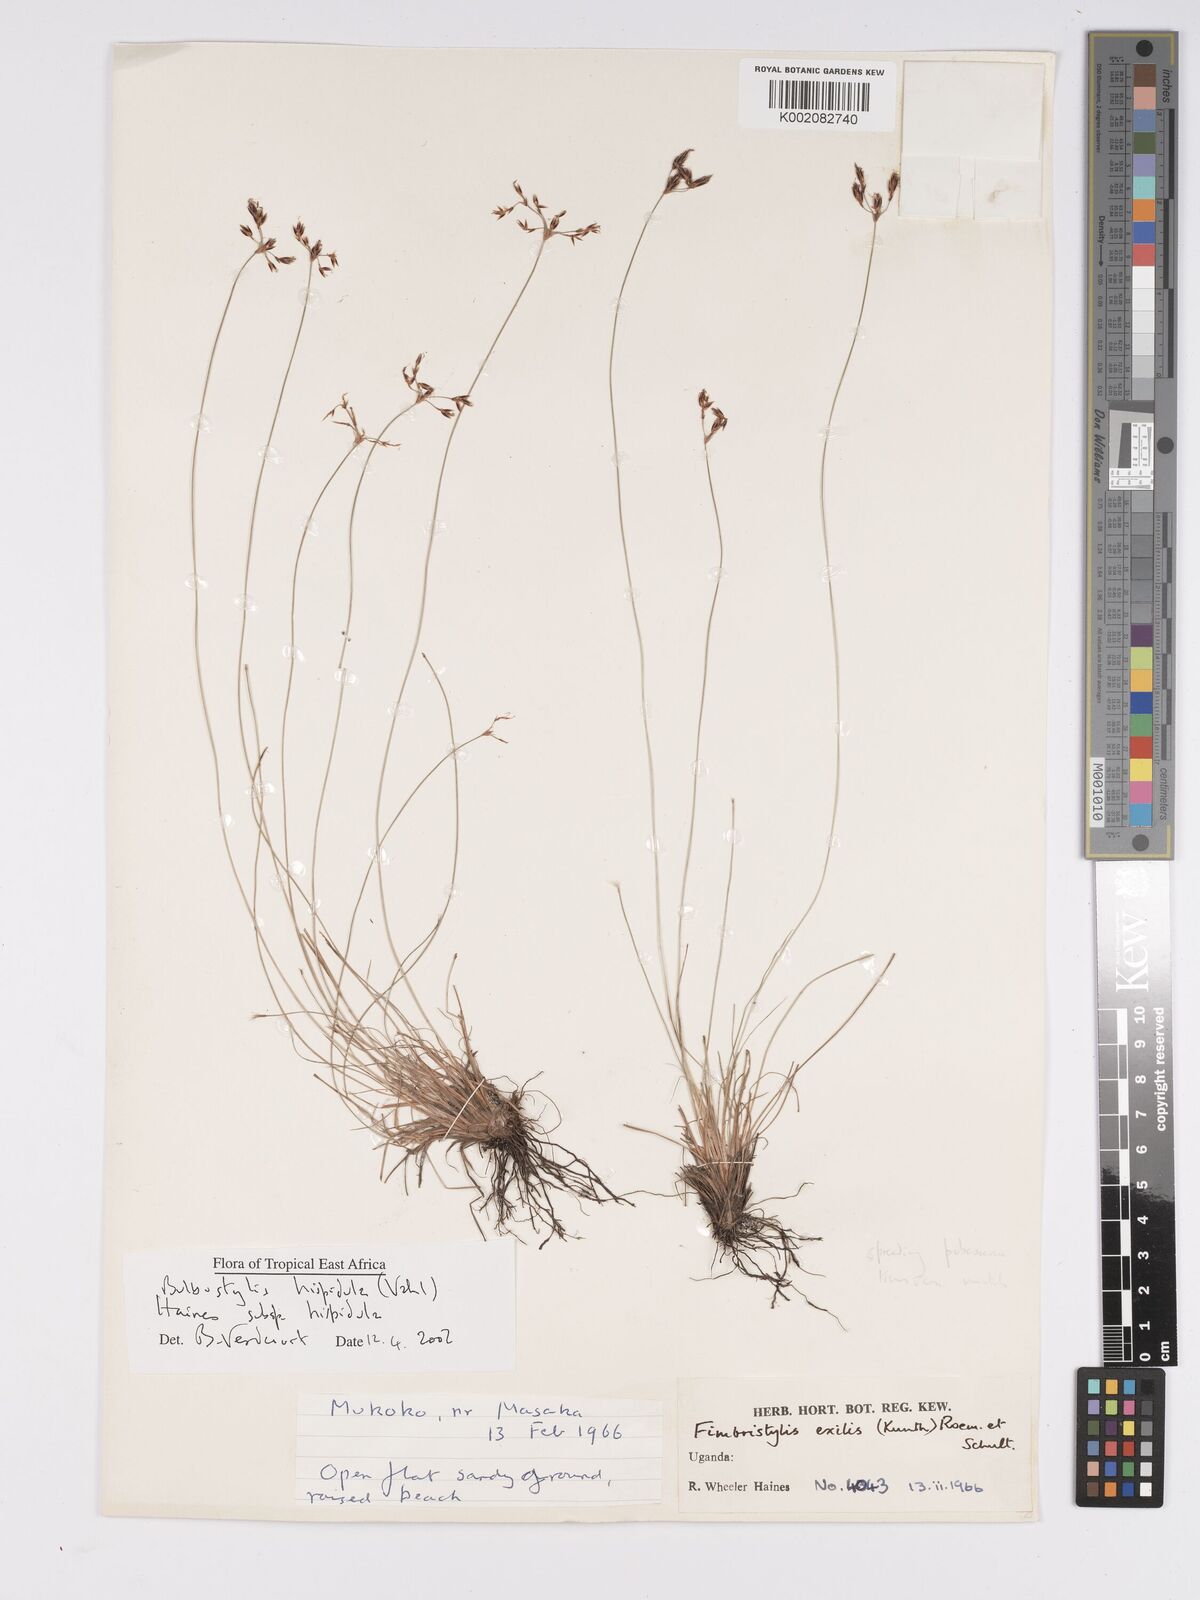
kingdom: Plantae
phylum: Tracheophyta
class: Liliopsida
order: Poales
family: Cyperaceae
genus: Bulbostylis
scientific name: Bulbostylis hispidula
